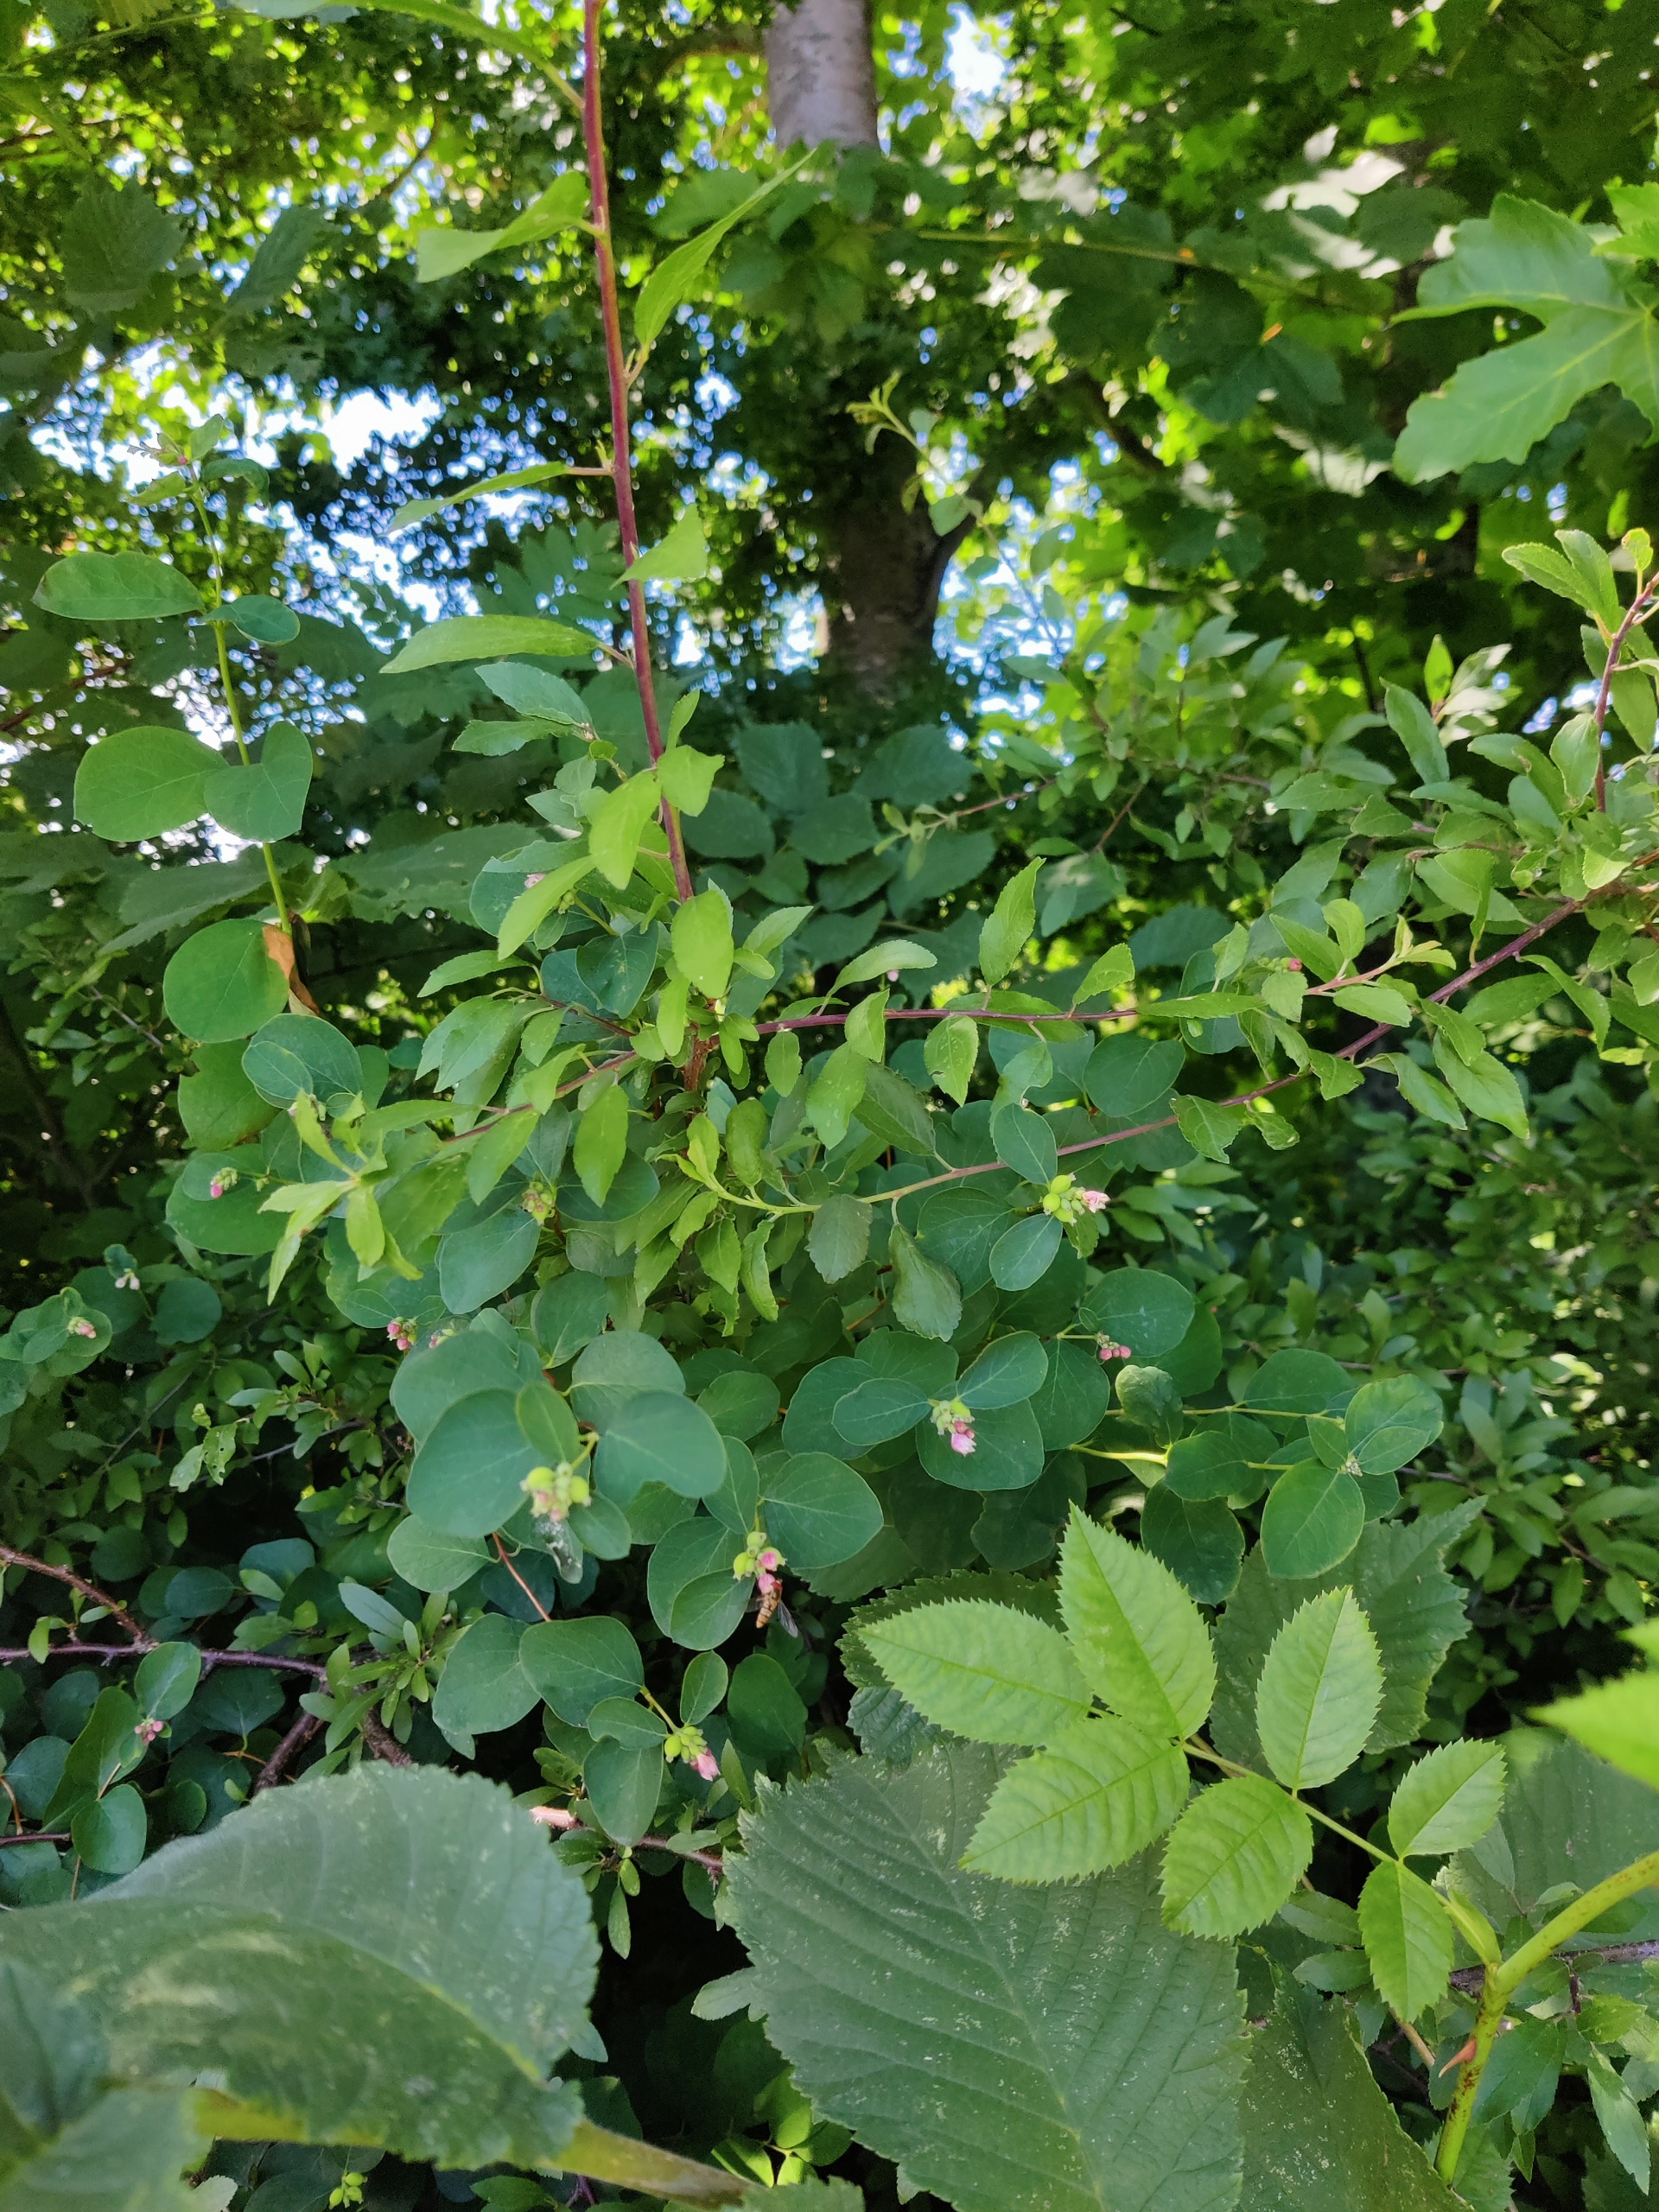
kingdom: Plantae
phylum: Tracheophyta
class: Magnoliopsida
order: Dipsacales
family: Caprifoliaceae
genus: Symphoricarpos
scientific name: Symphoricarpos albus
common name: Almindelig snebær
